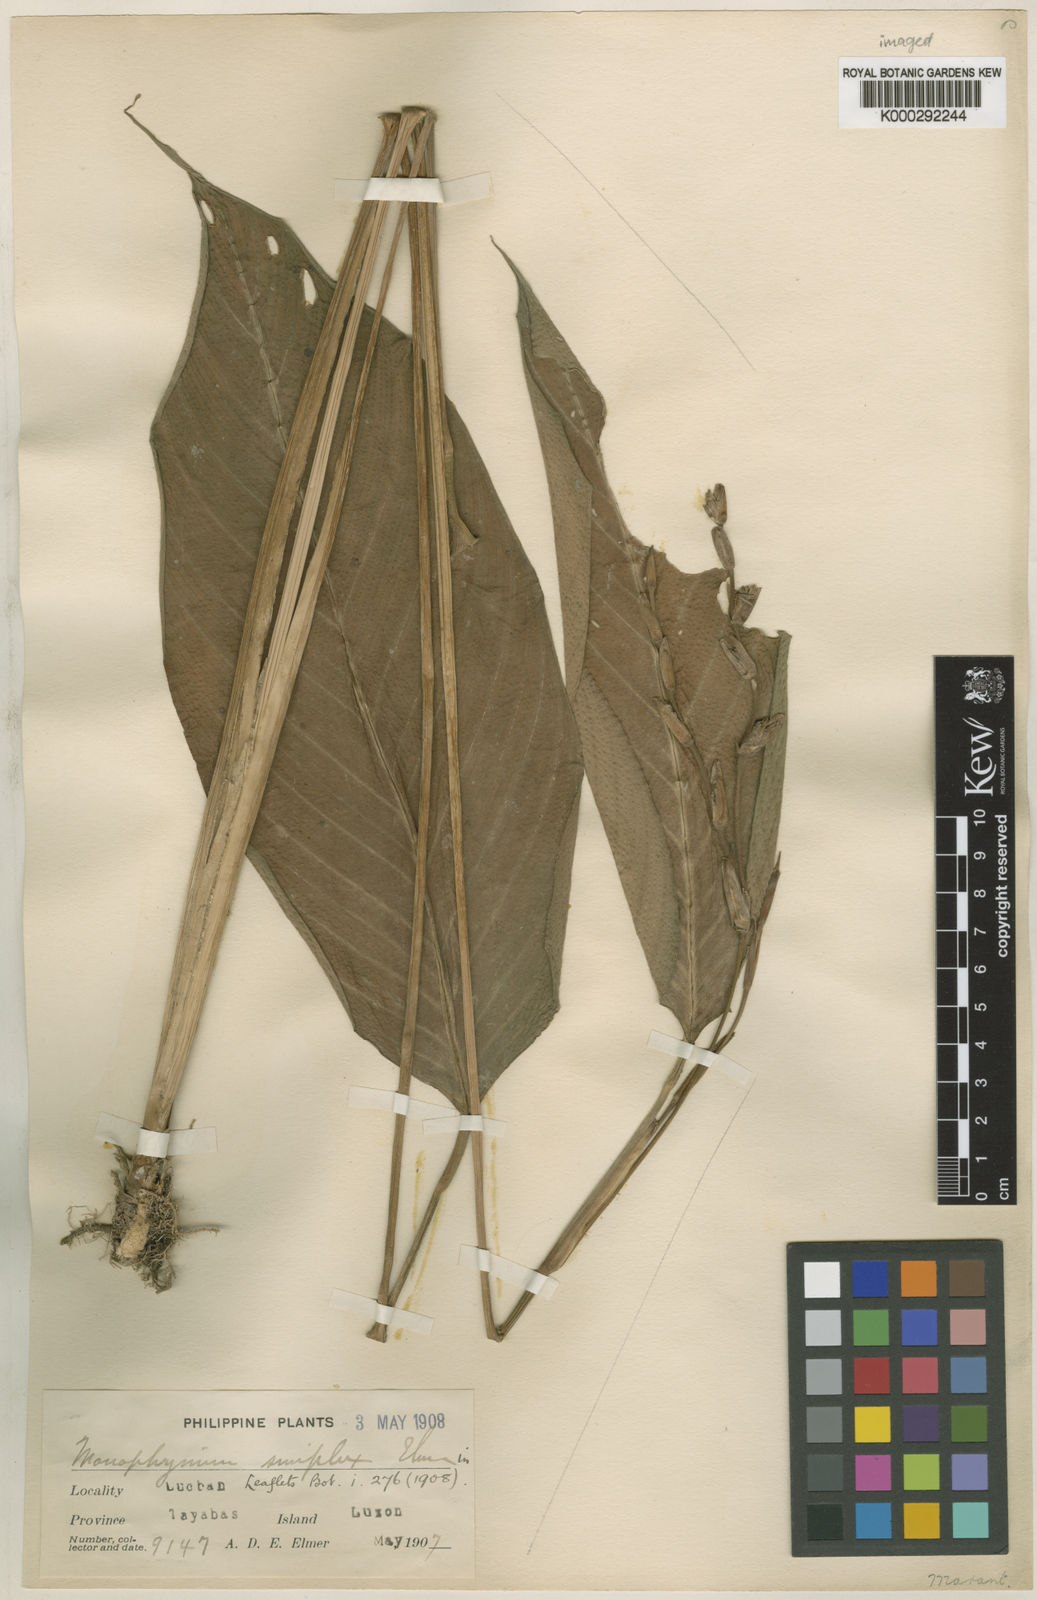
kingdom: Plantae
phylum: Tracheophyta
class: Liliopsida
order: Zingiberales
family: Marantaceae
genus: Phrynium
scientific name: Phrynium simplex
